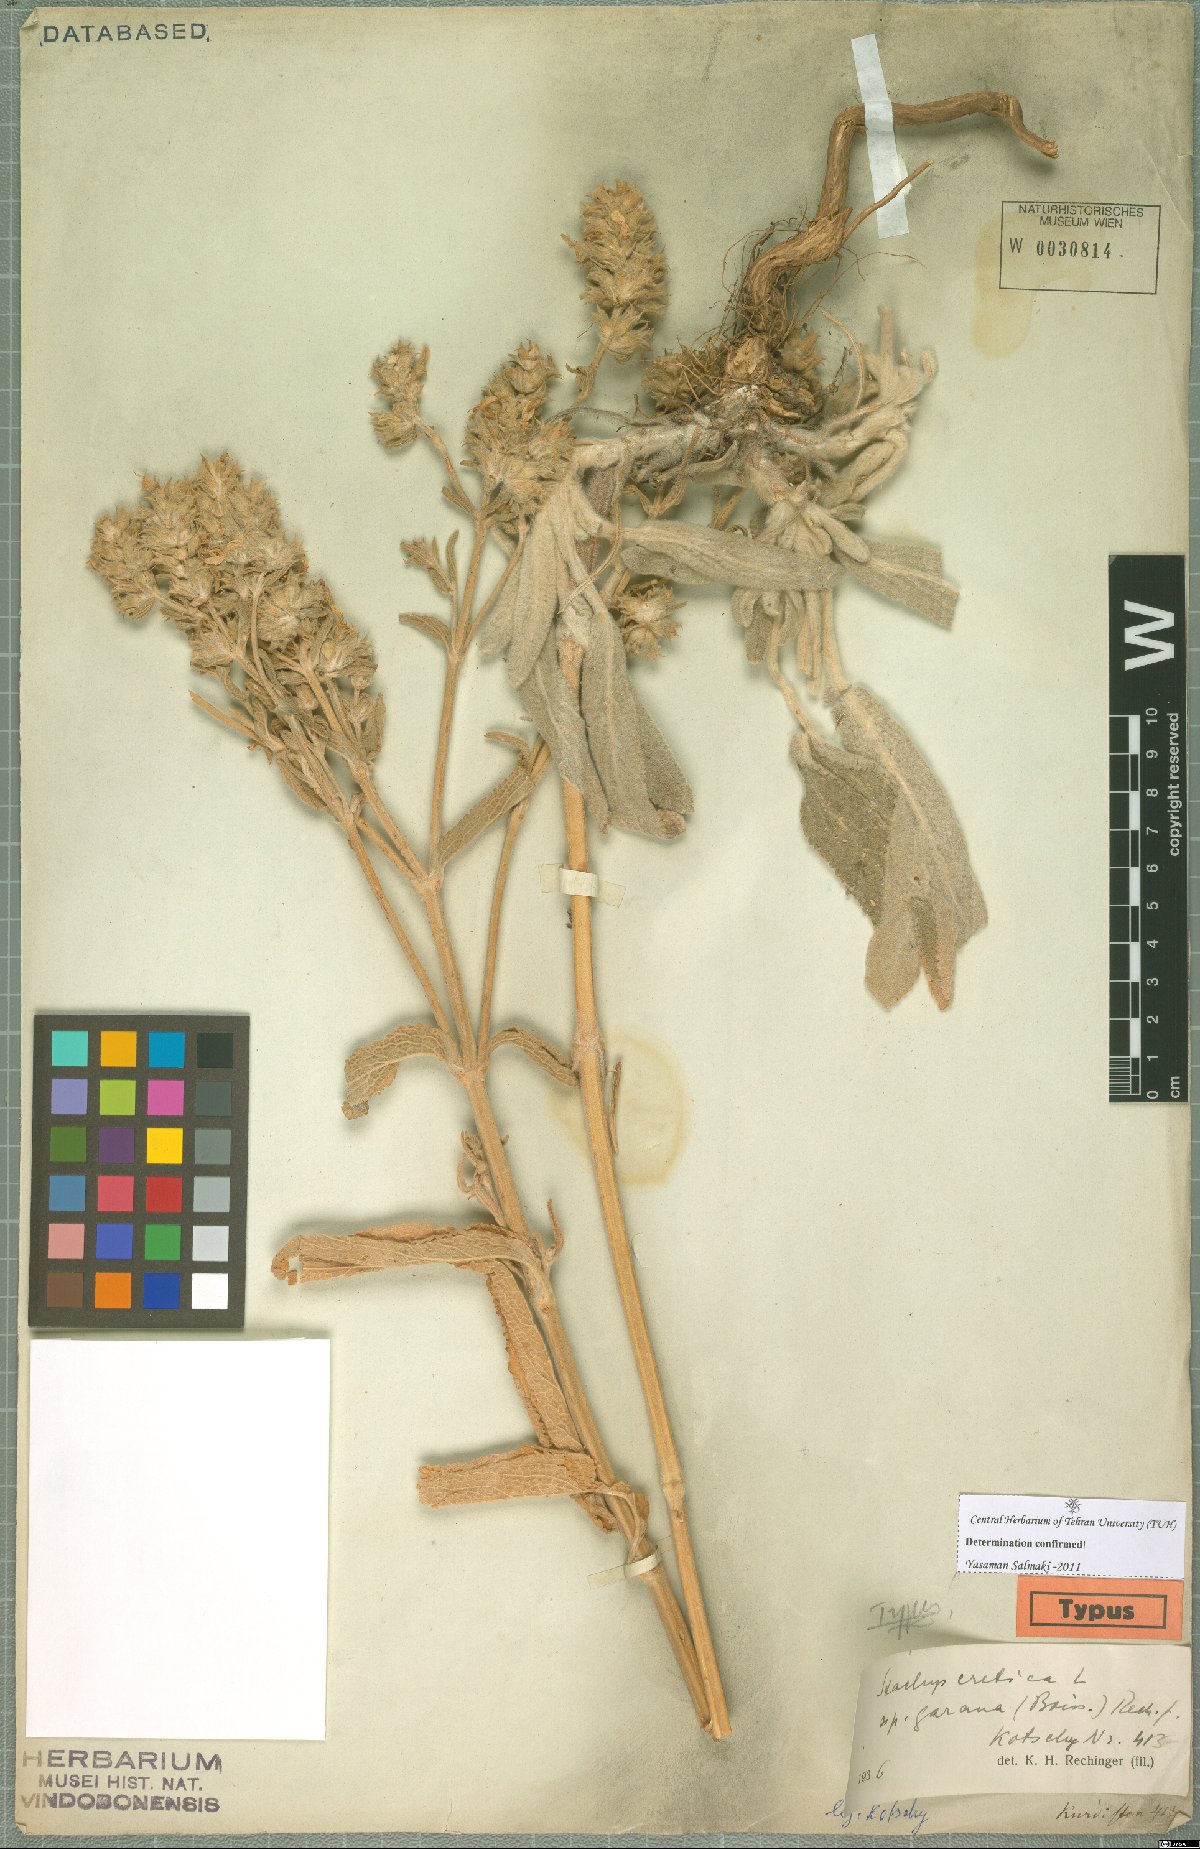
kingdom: Plantae
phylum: Tracheophyta
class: Magnoliopsida
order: Lamiales
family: Lamiaceae
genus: Stachys
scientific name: Stachys cretica
